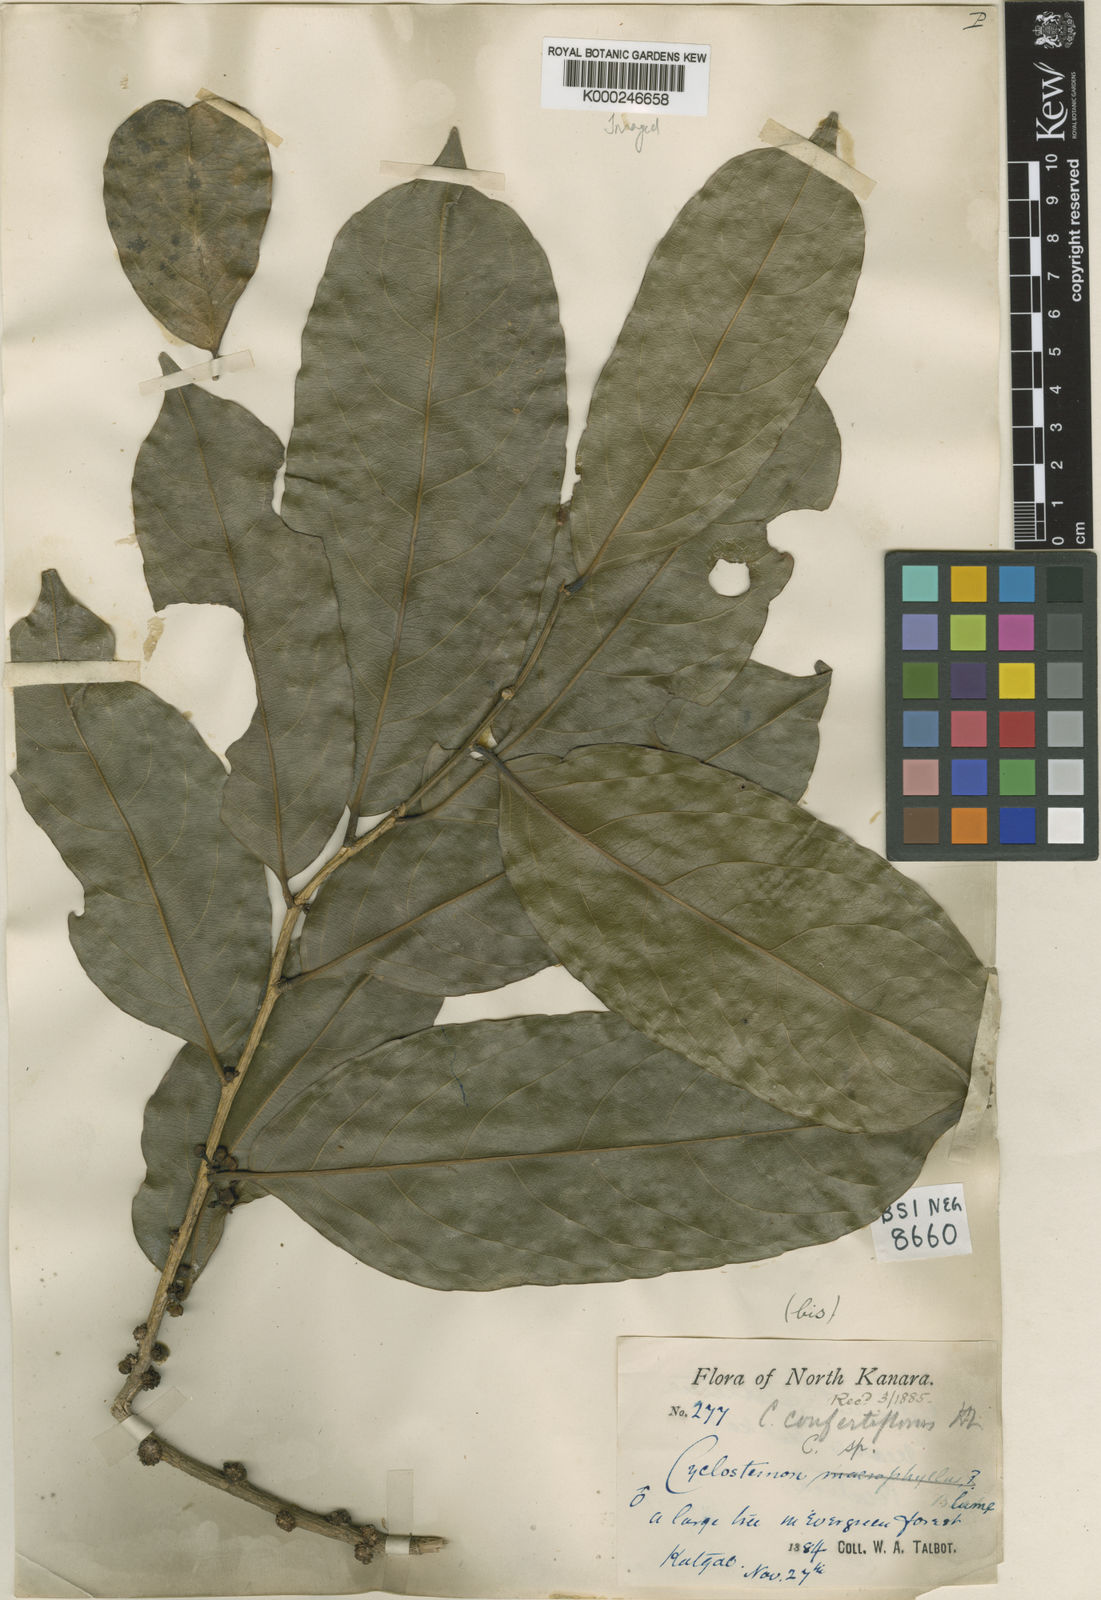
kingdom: Plantae
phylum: Tracheophyta
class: Magnoliopsida
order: Malpighiales
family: Putranjivaceae
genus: Drypetes
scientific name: Drypetes confertiflora
